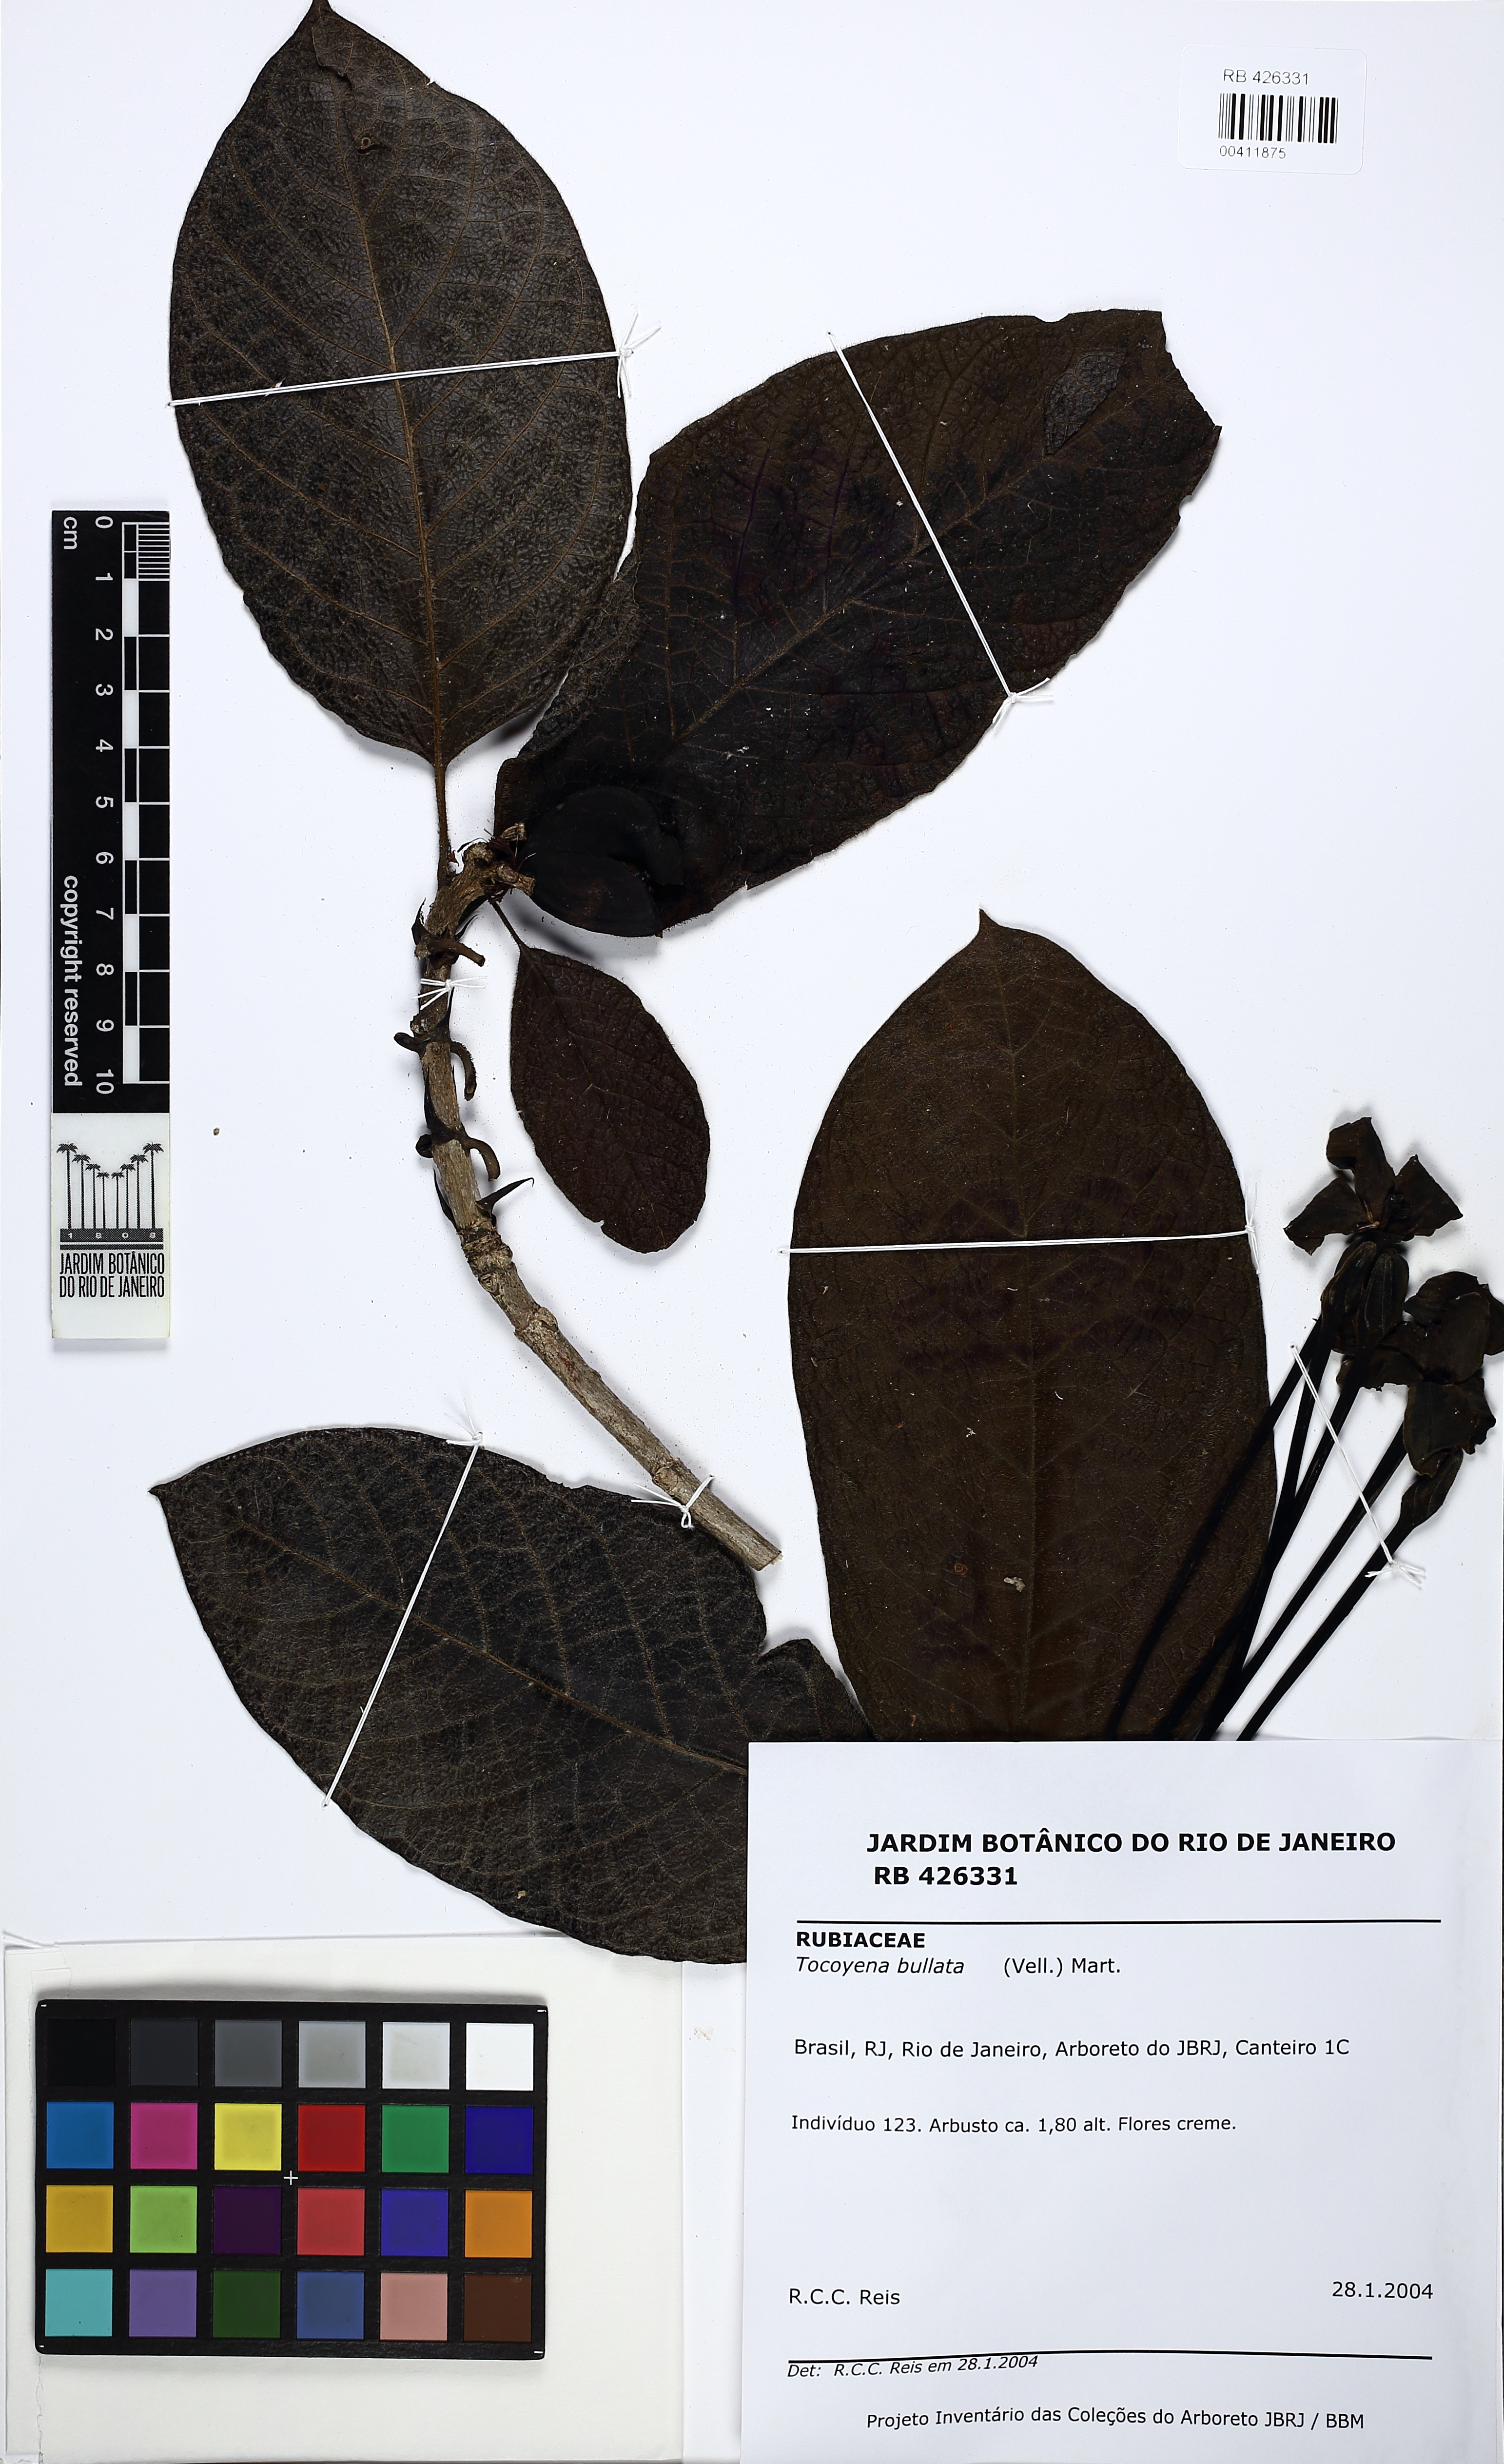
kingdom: Plantae
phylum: Tracheophyta
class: Magnoliopsida
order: Gentianales
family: Rubiaceae
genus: Tocoyena
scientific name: Tocoyena bullata
